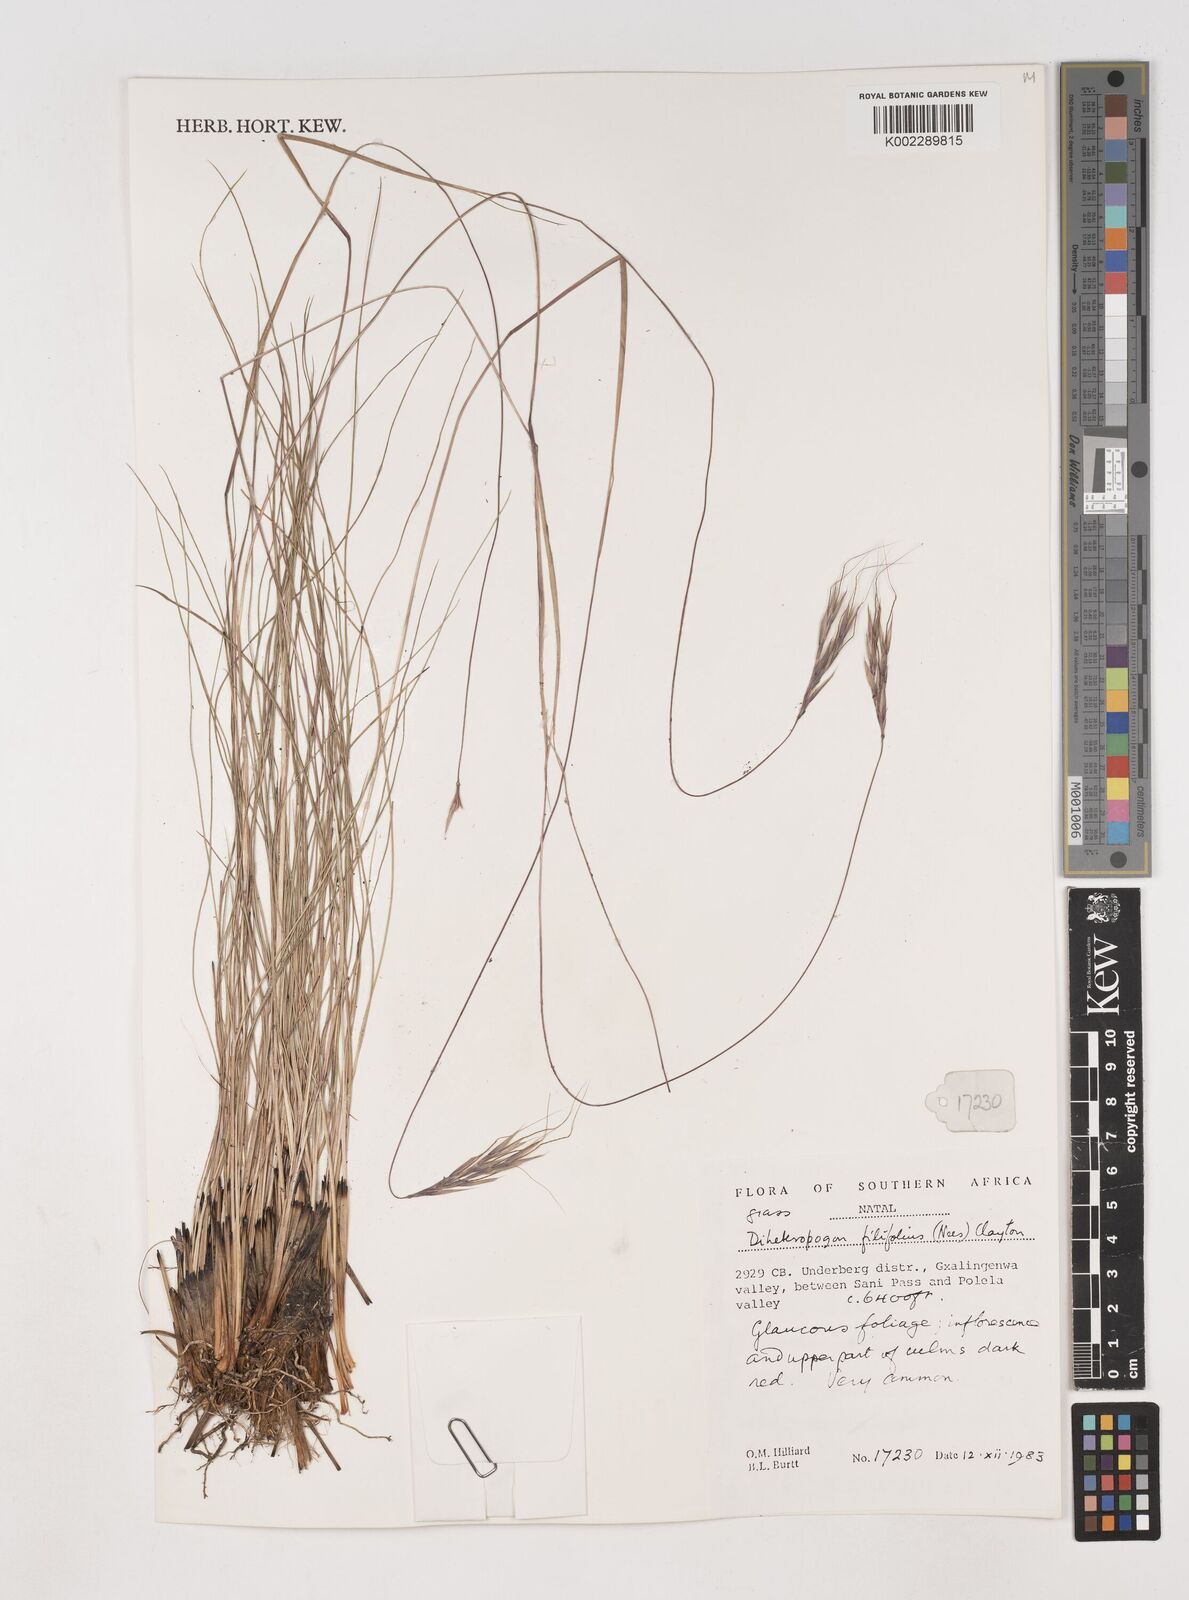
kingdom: Plantae
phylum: Tracheophyta
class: Liliopsida
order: Poales
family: Poaceae
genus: Diheteropogon
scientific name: Diheteropogon filifolius
